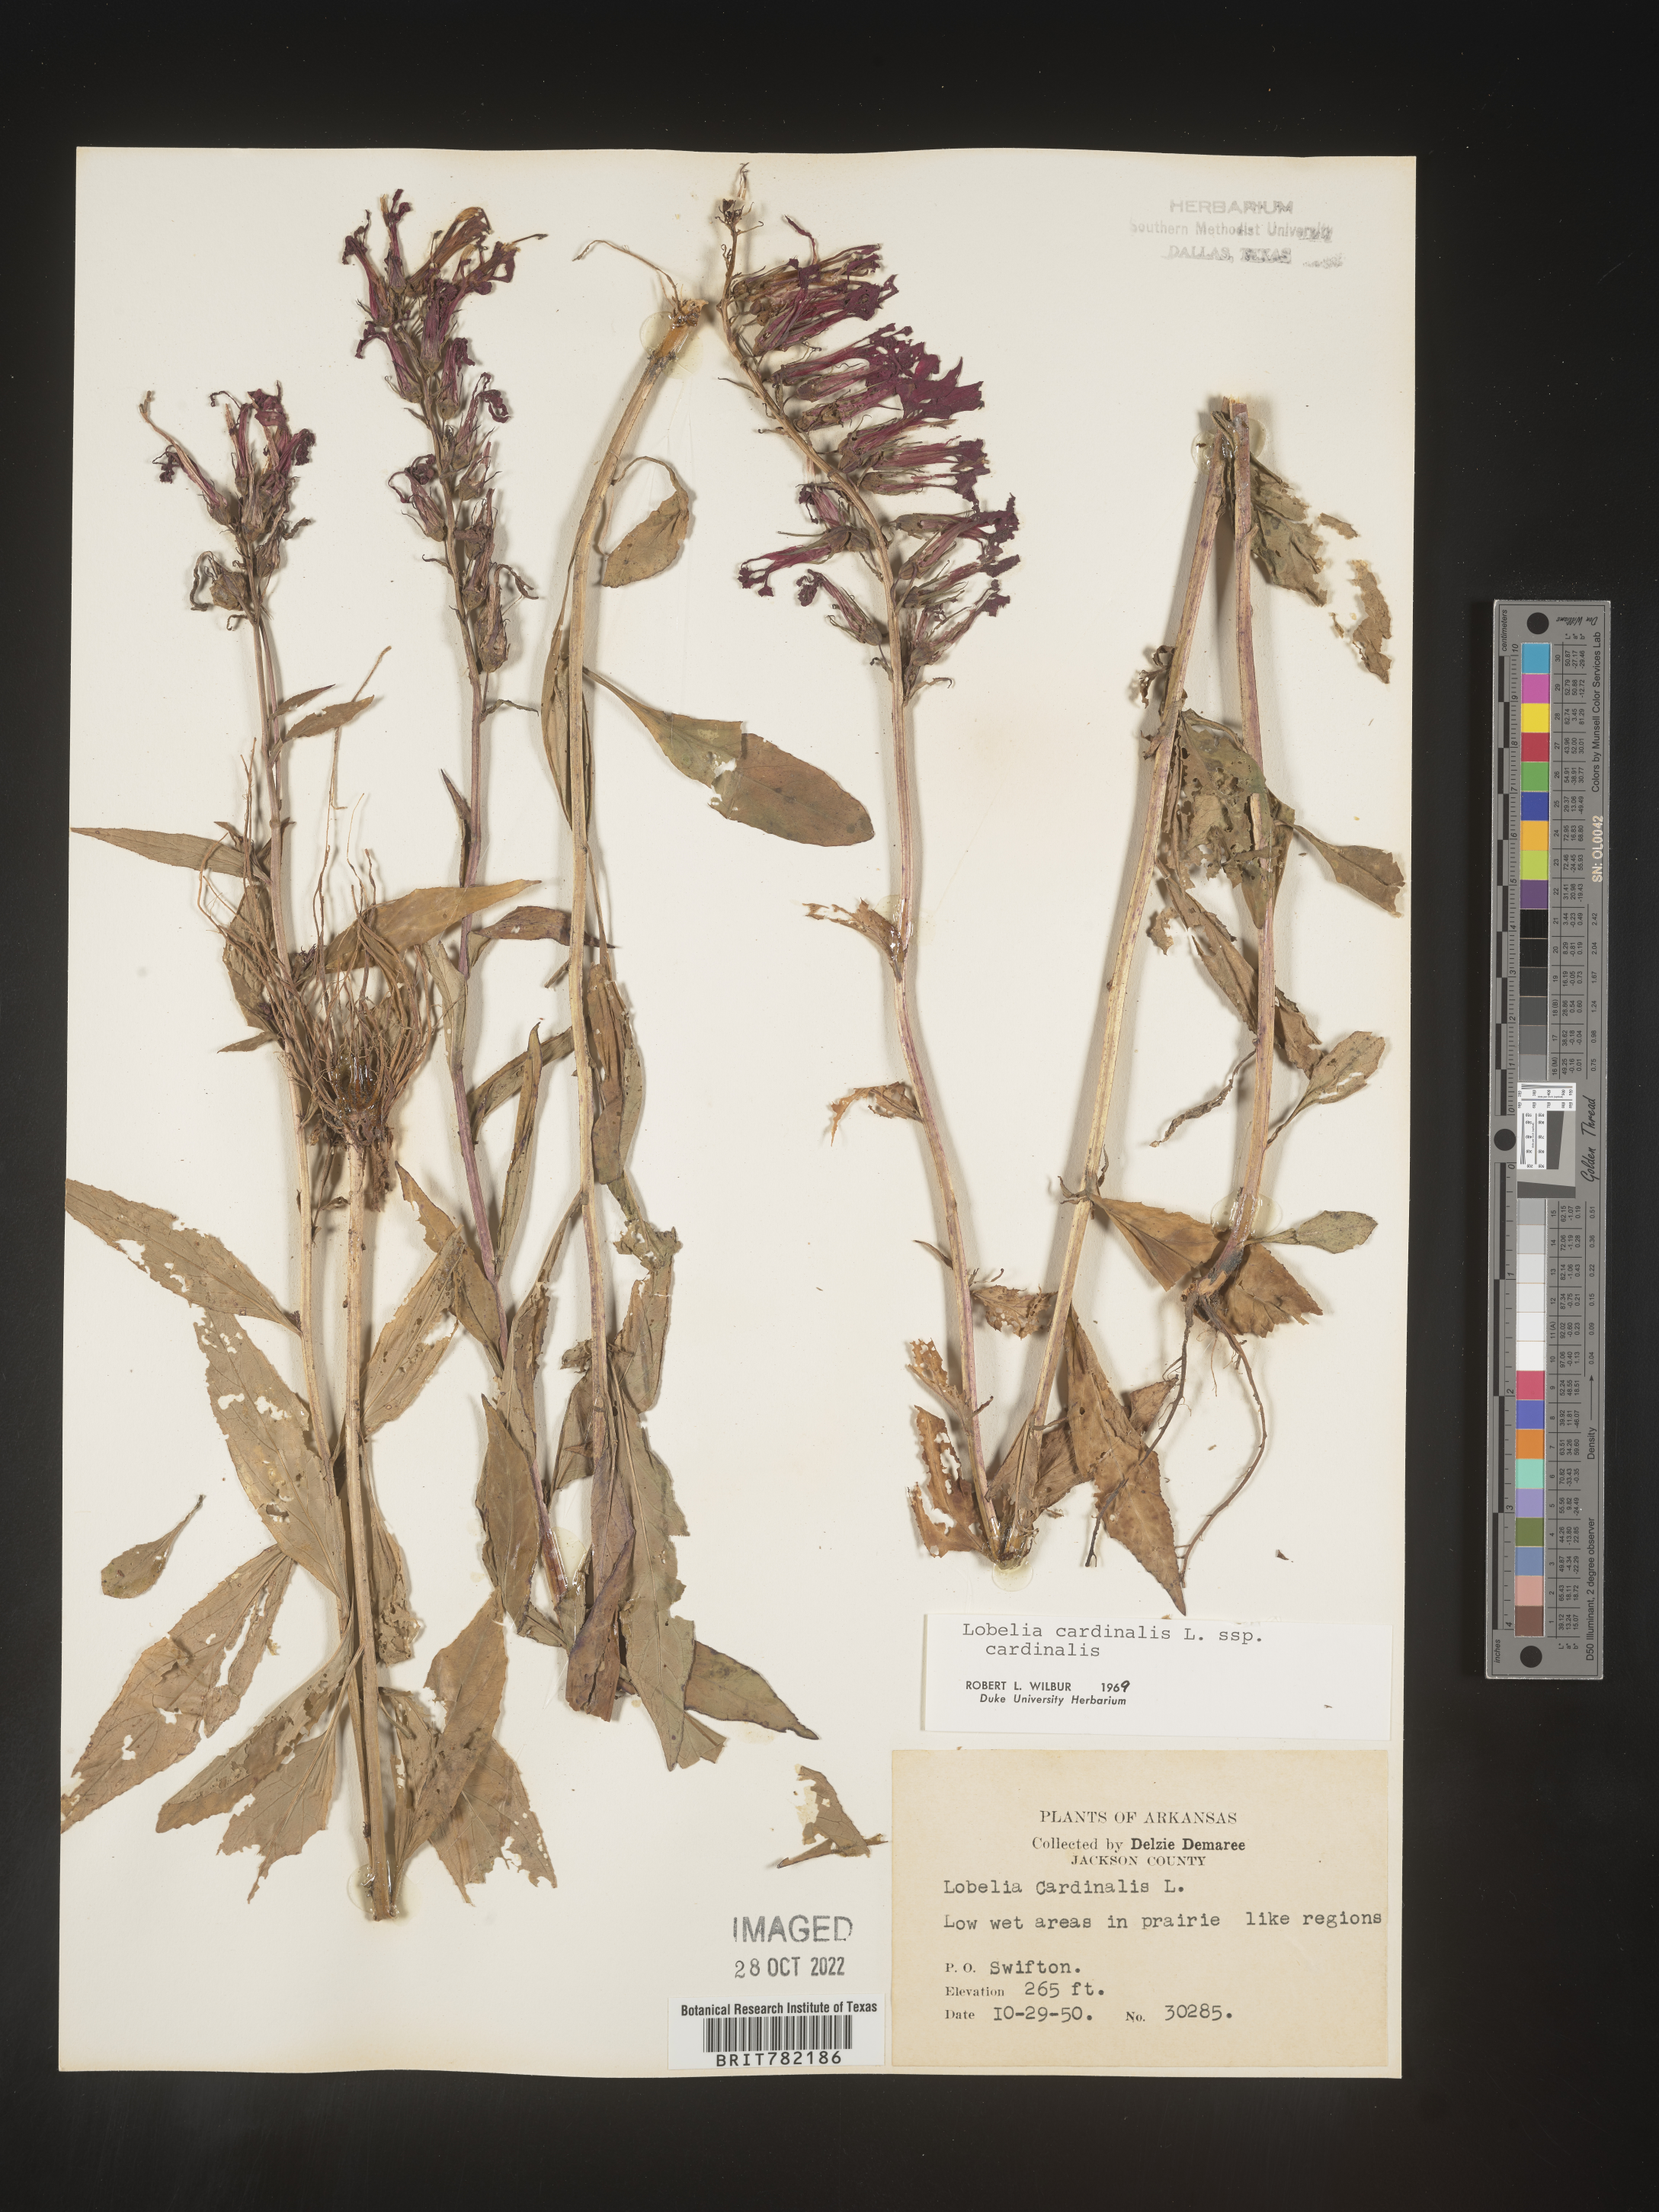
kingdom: Plantae
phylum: Tracheophyta
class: Magnoliopsida
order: Asterales
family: Campanulaceae
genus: Lobelia
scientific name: Lobelia cardinalis
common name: Cardinal flower
